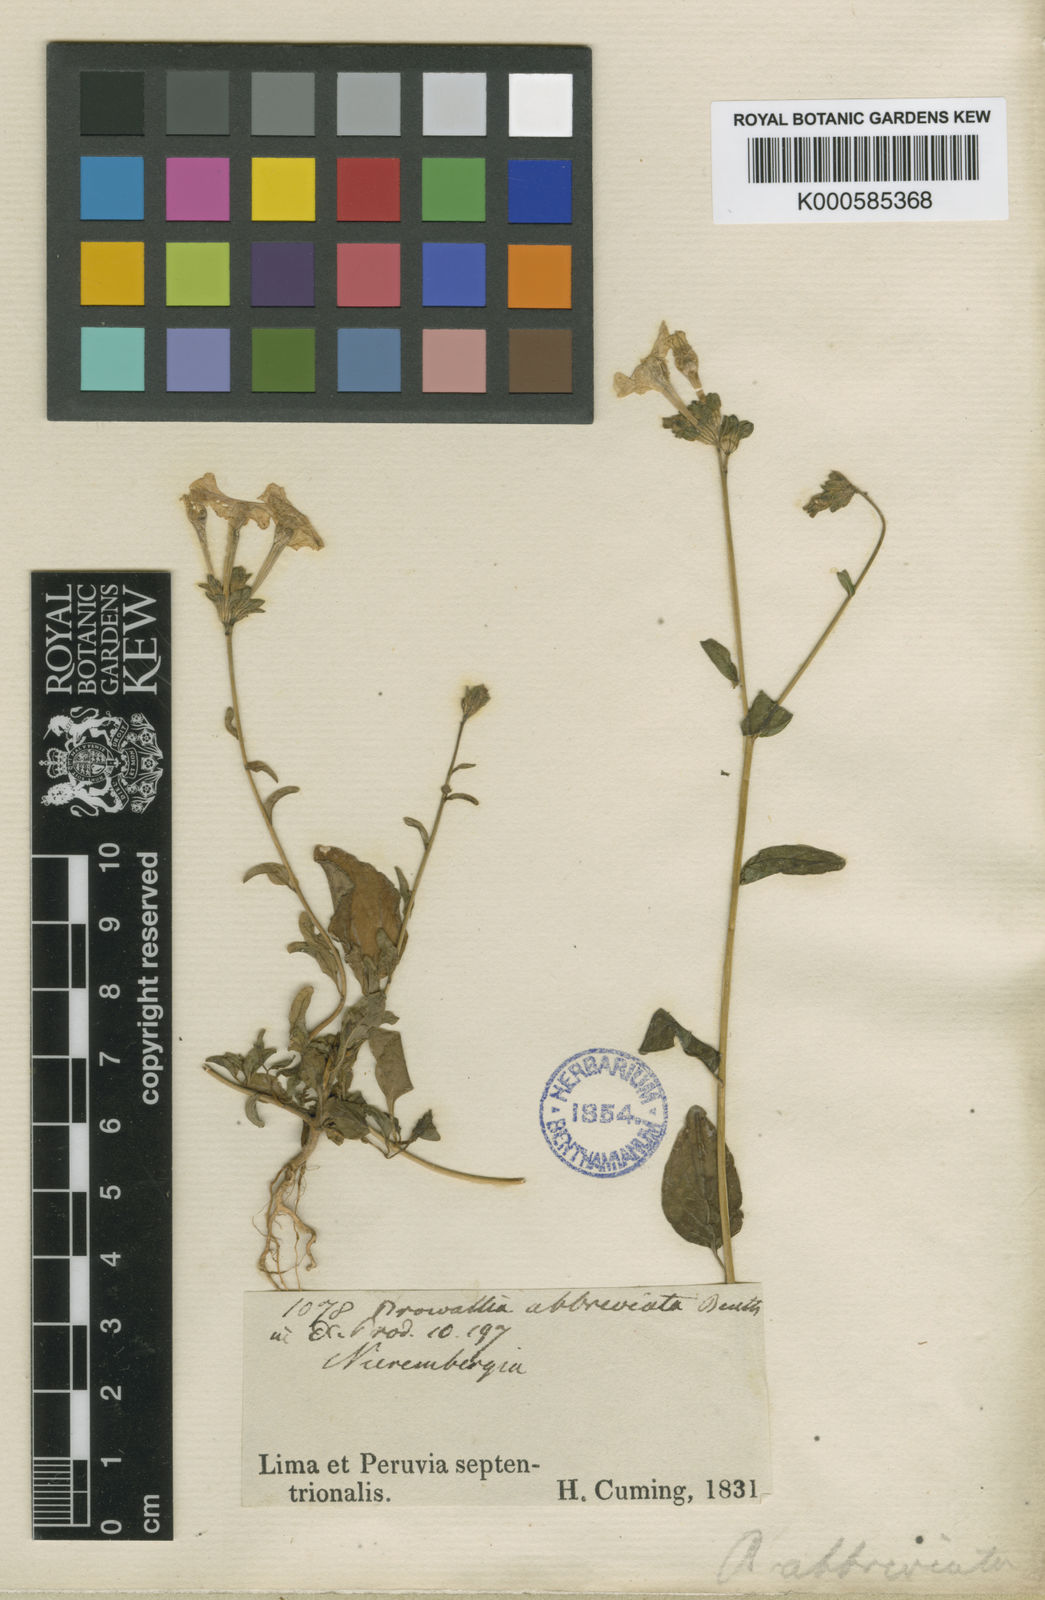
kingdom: Plantae
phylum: Tracheophyta
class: Magnoliopsida
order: Solanales
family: Solanaceae
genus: Browallia
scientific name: Browallia abbreviata
